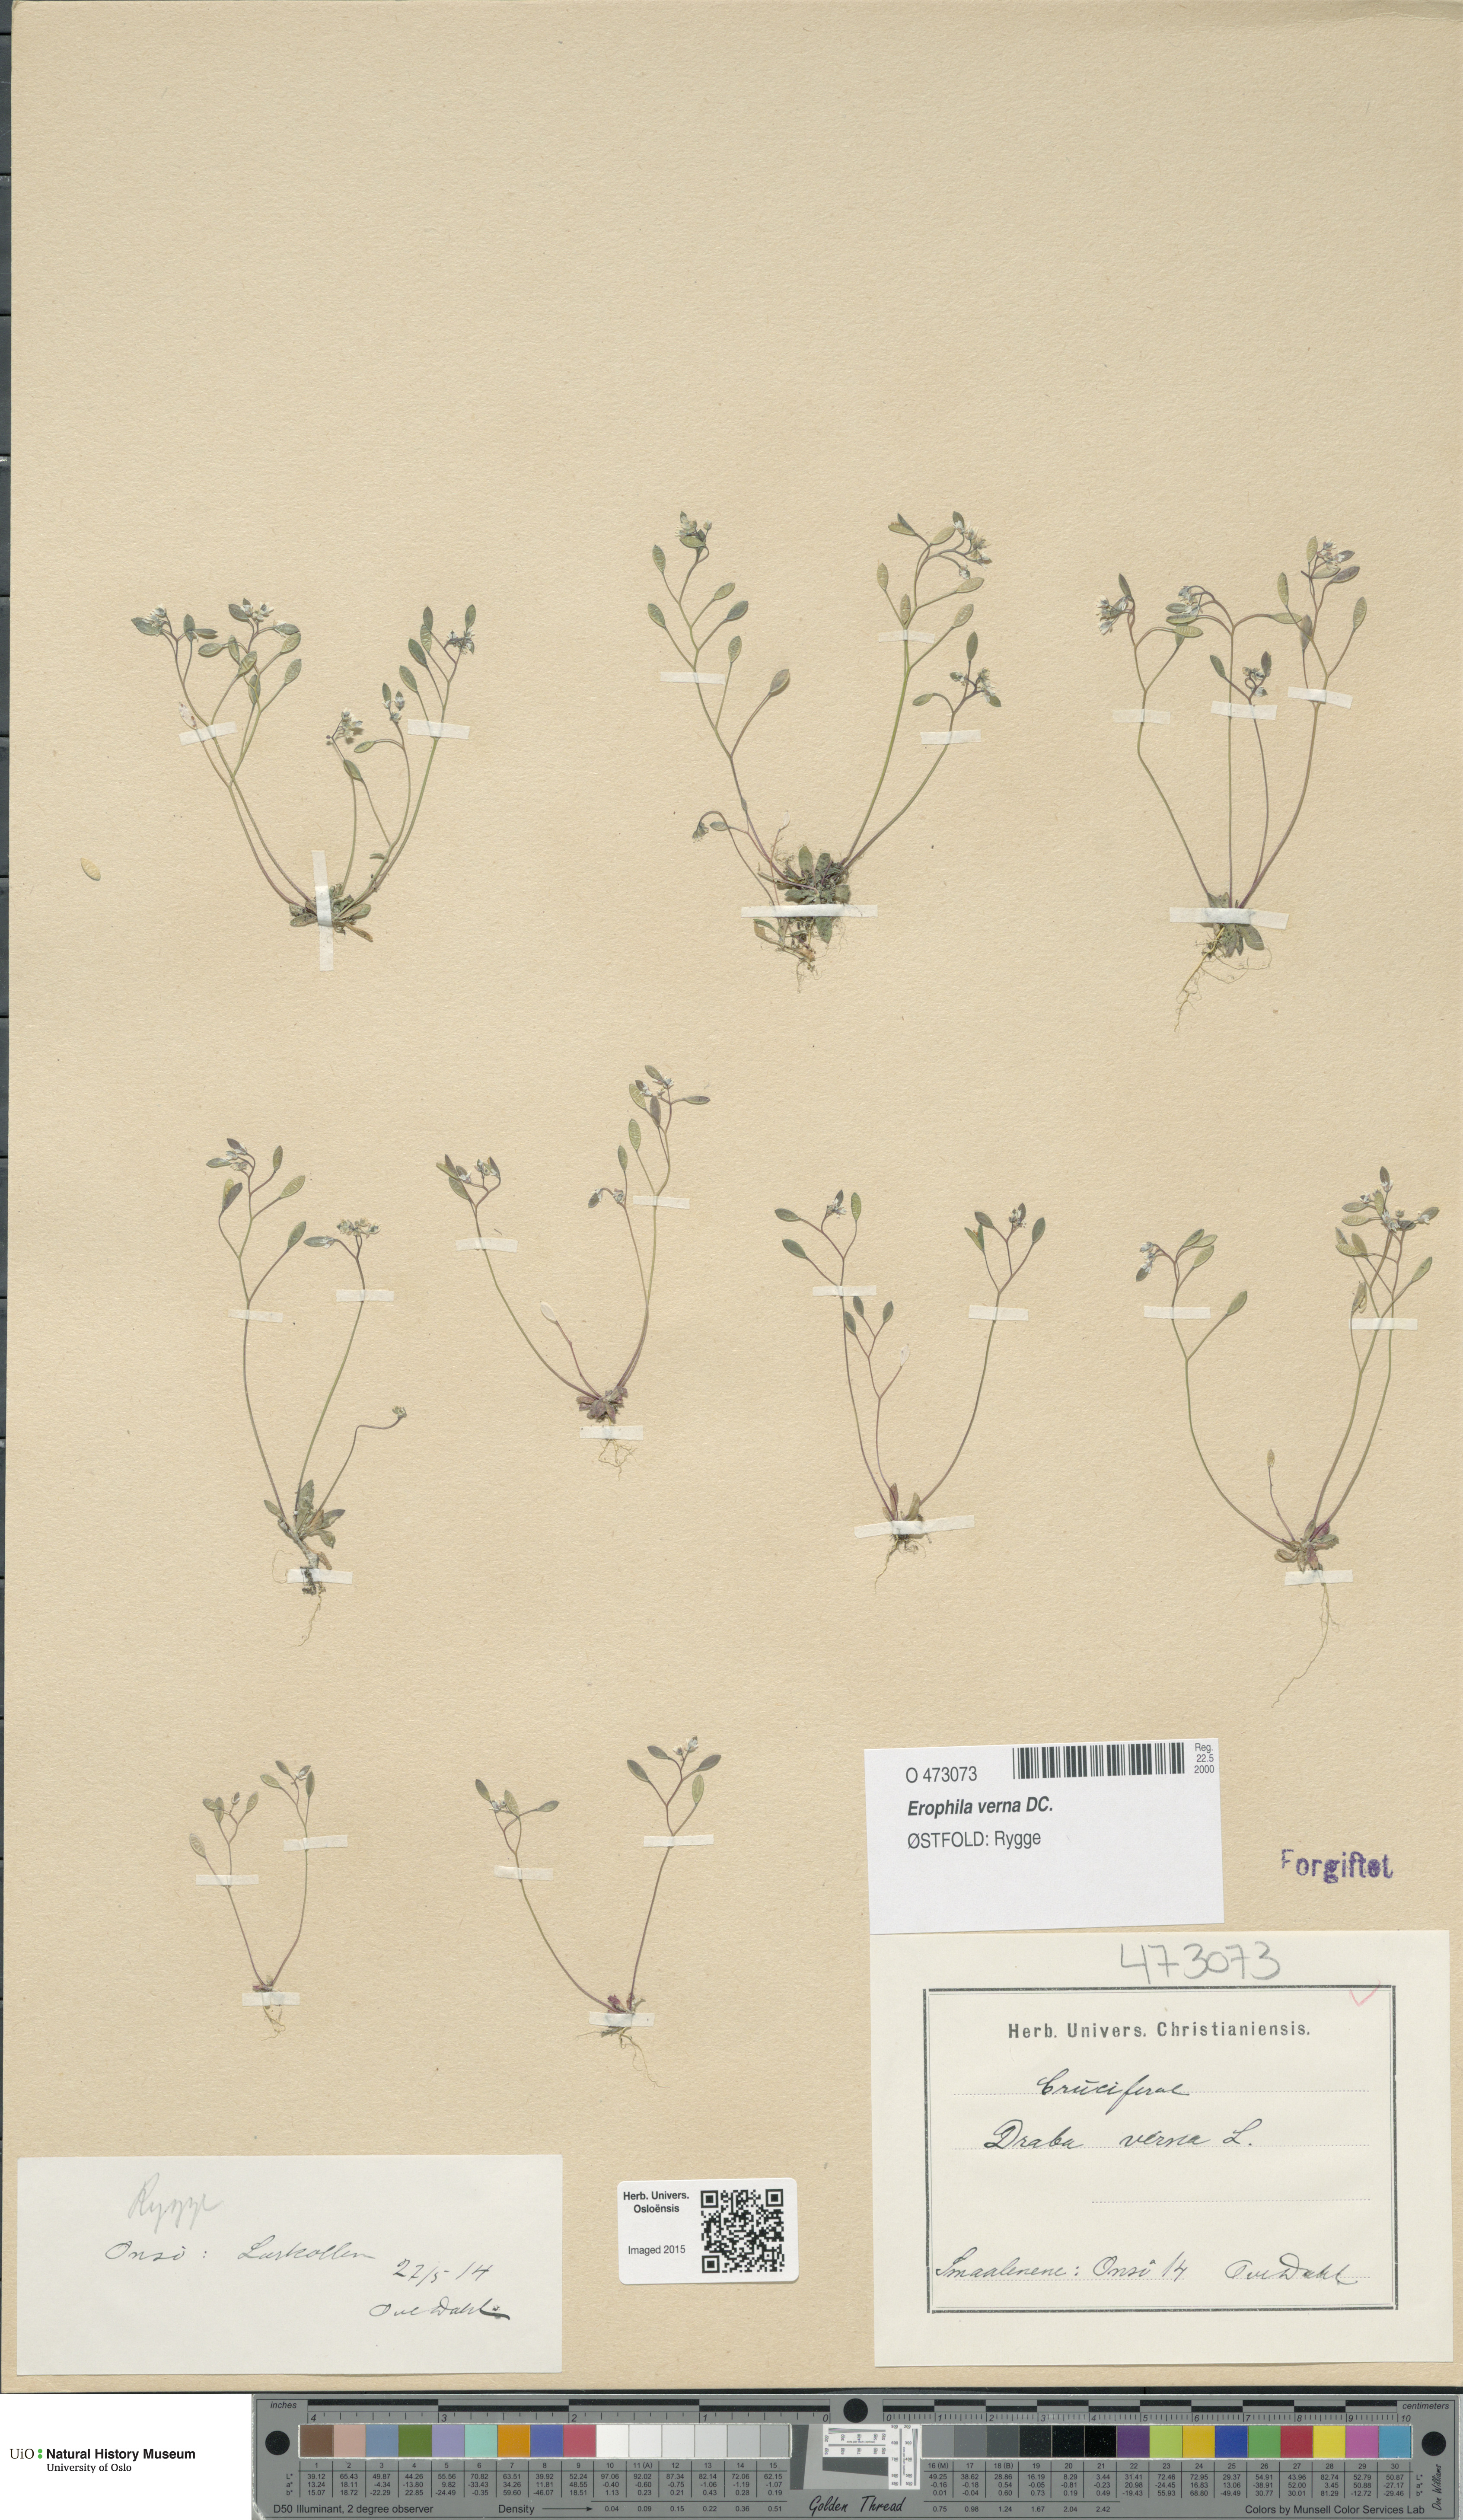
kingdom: Plantae
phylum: Tracheophyta
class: Magnoliopsida
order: Brassicales
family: Brassicaceae
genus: Draba
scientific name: Draba verna
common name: Spring draba
